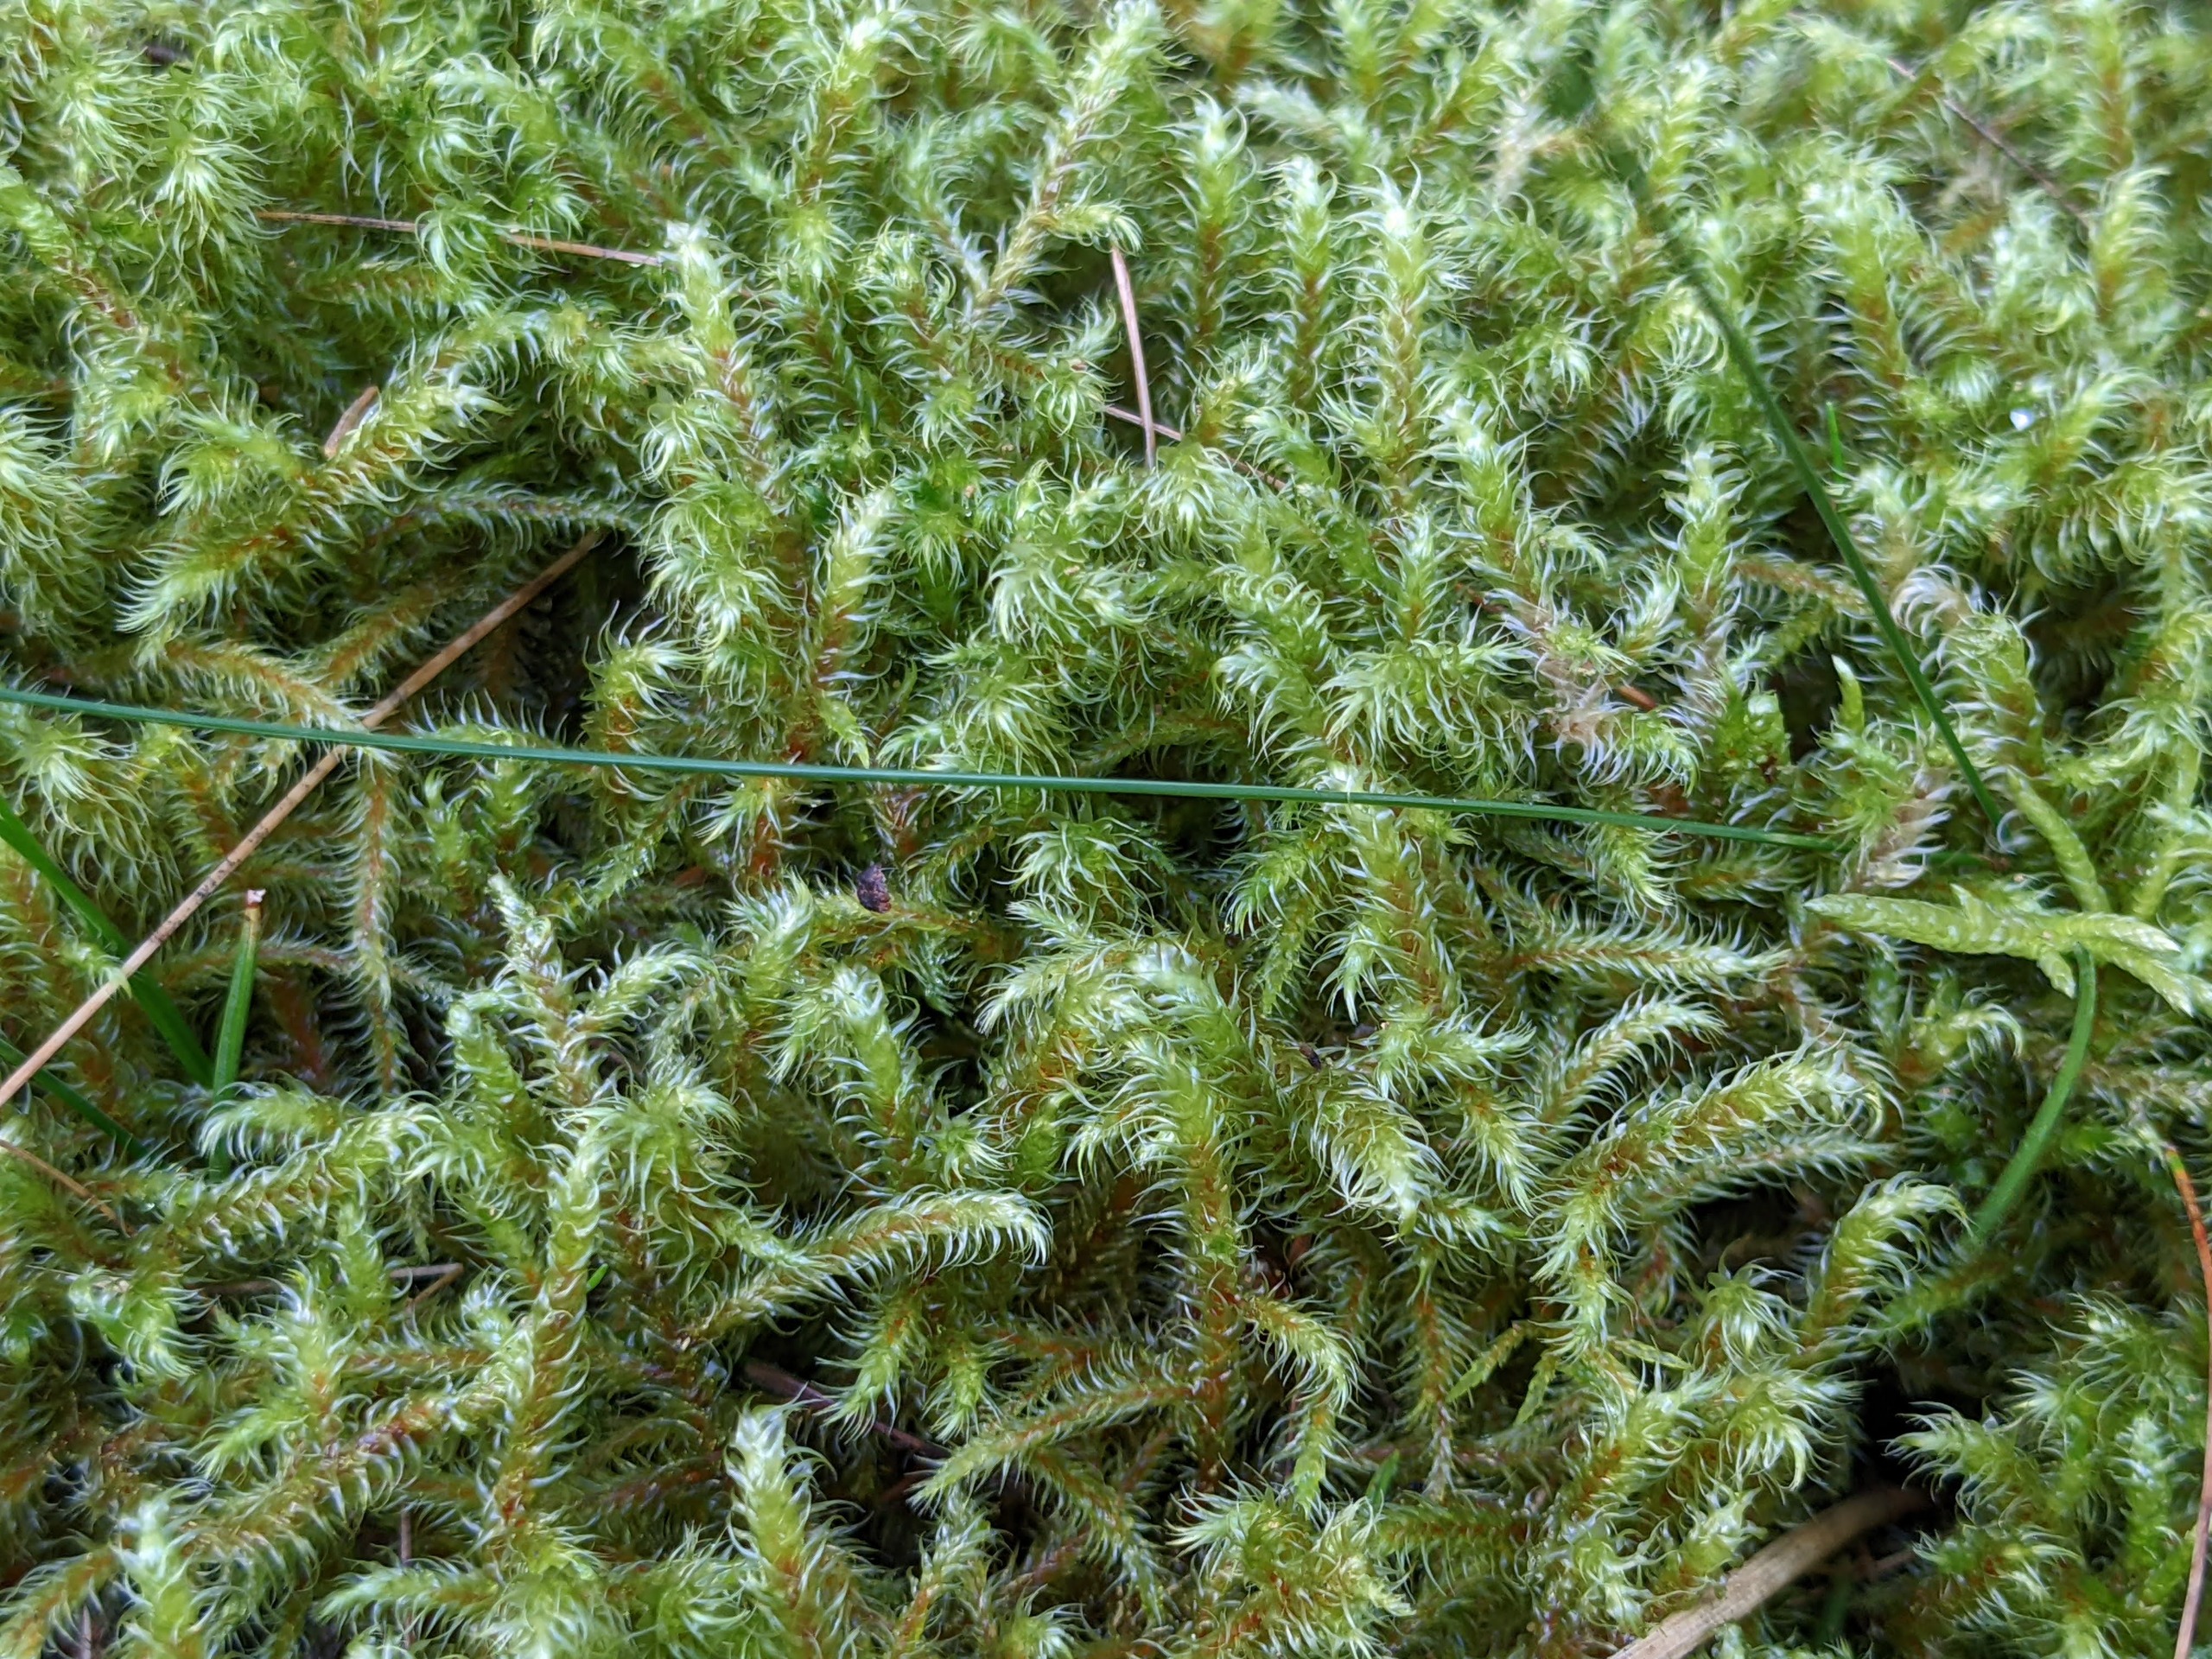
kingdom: Plantae
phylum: Bryophyta
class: Bryopsida
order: Hypnales
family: Hylocomiaceae
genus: Rhytidiadelphus
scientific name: Rhytidiadelphus loreus
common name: Ulvefod-kransemos
